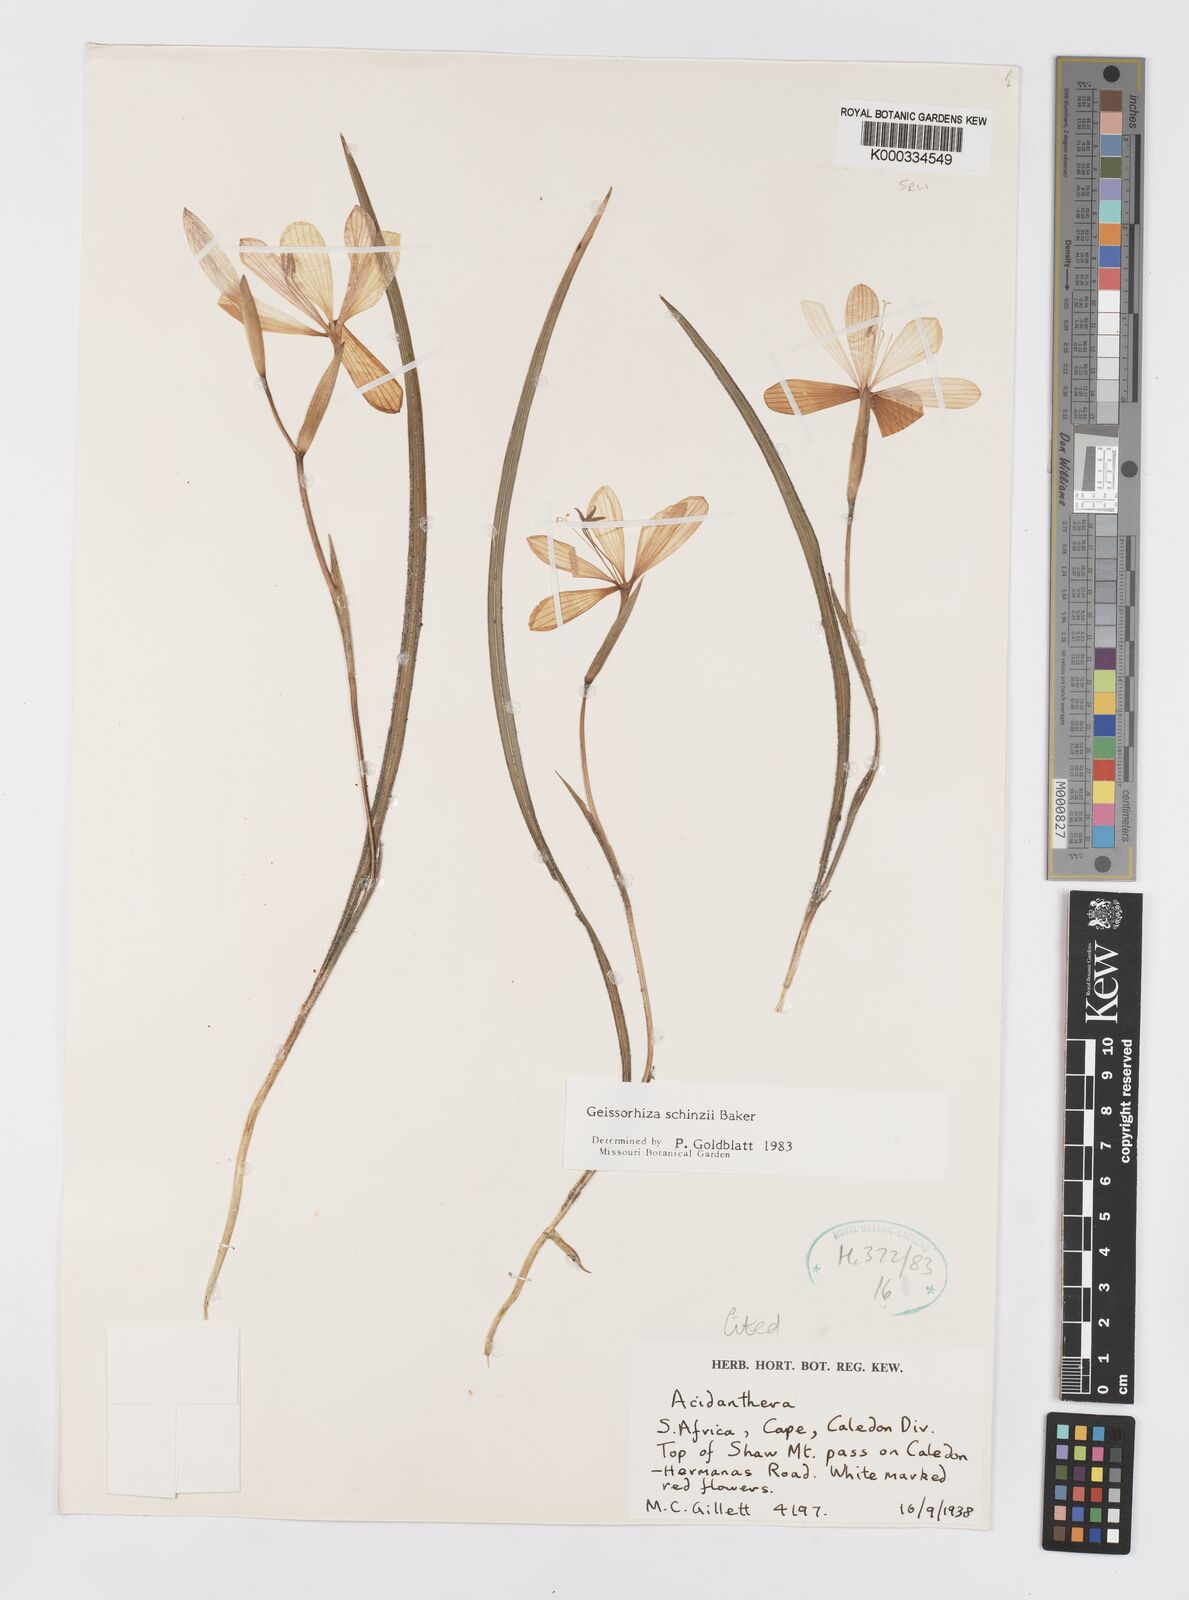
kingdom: Plantae
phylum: Tracheophyta
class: Liliopsida
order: Asparagales
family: Iridaceae
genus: Geissorhiza
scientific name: Geissorhiza schinzii
